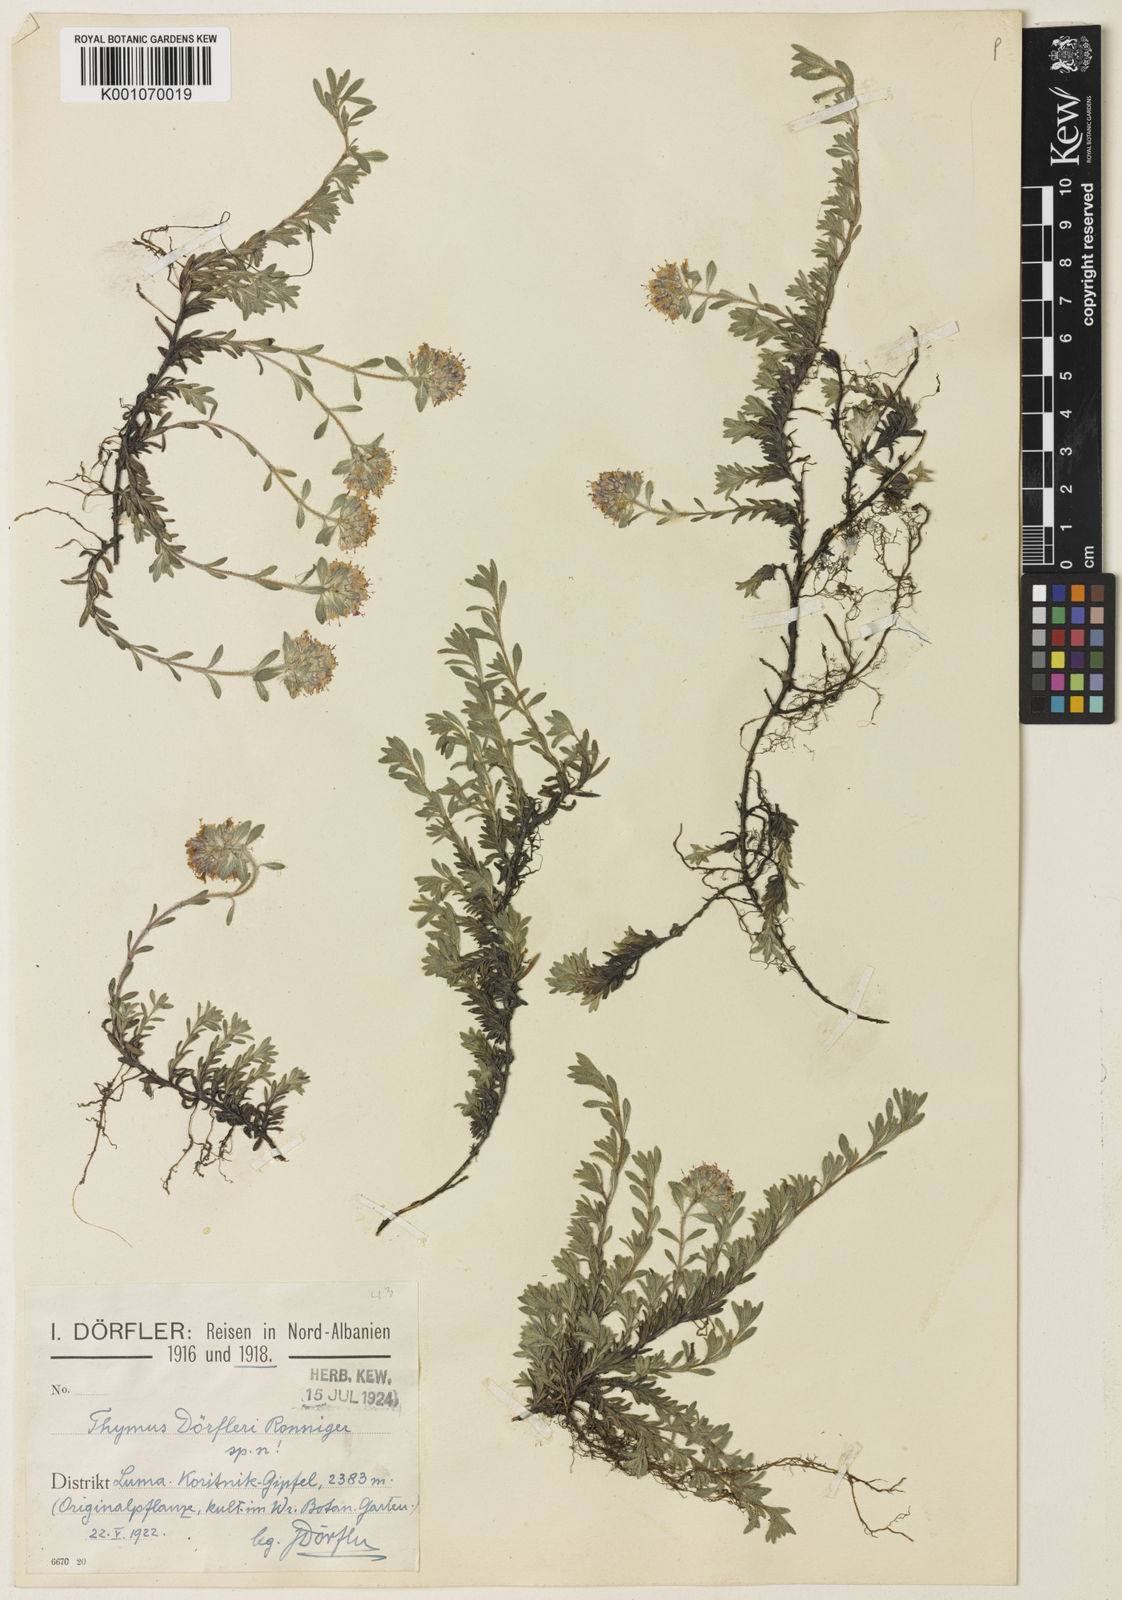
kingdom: Plantae
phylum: Tracheophyta
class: Magnoliopsida
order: Lamiales
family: Lamiaceae
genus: Thymus
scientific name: Thymus doerfleri
